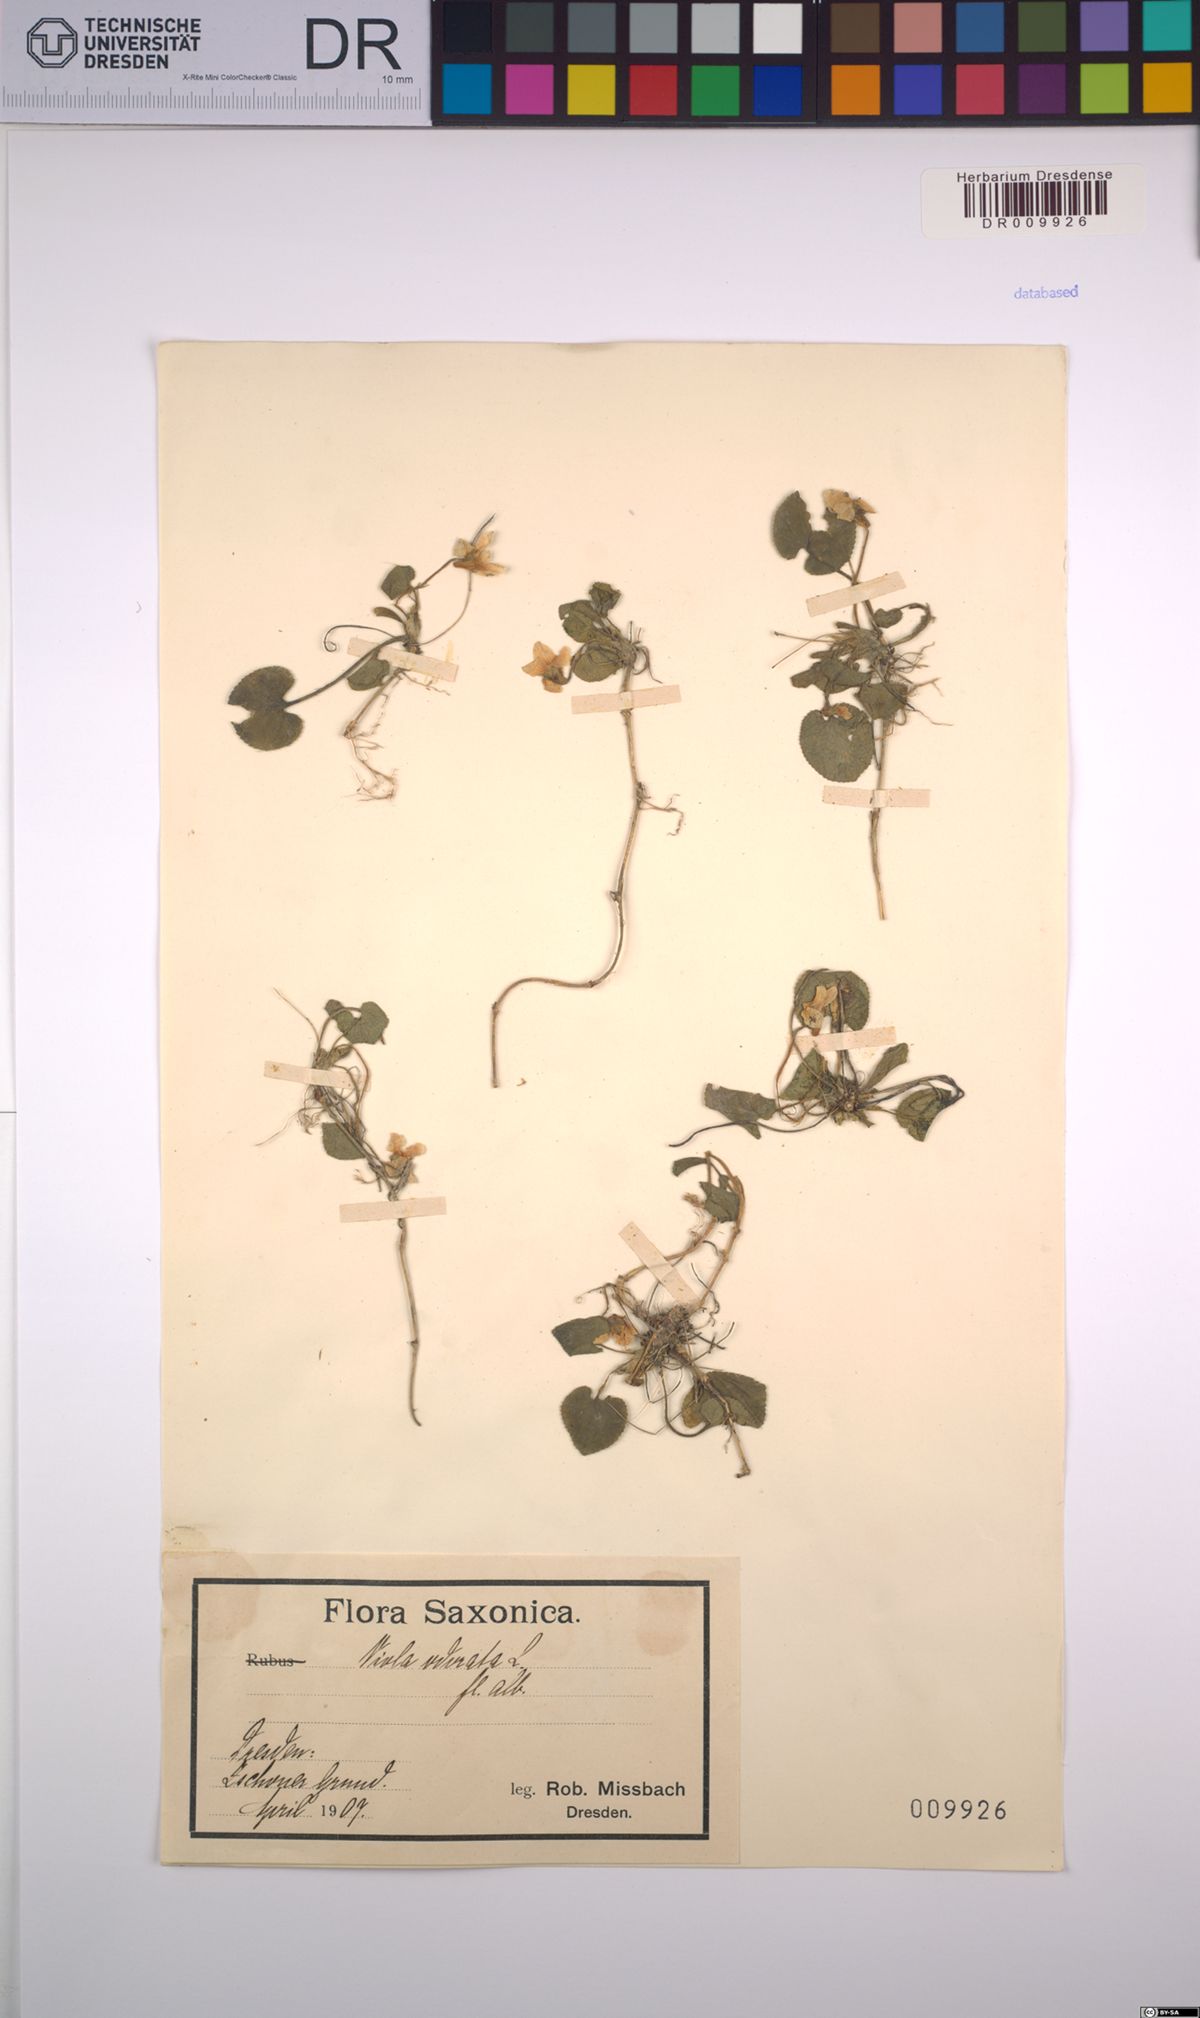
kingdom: Plantae
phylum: Tracheophyta
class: Magnoliopsida
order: Malpighiales
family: Violaceae
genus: Viola
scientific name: Viola odorata
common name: Sweet violet
